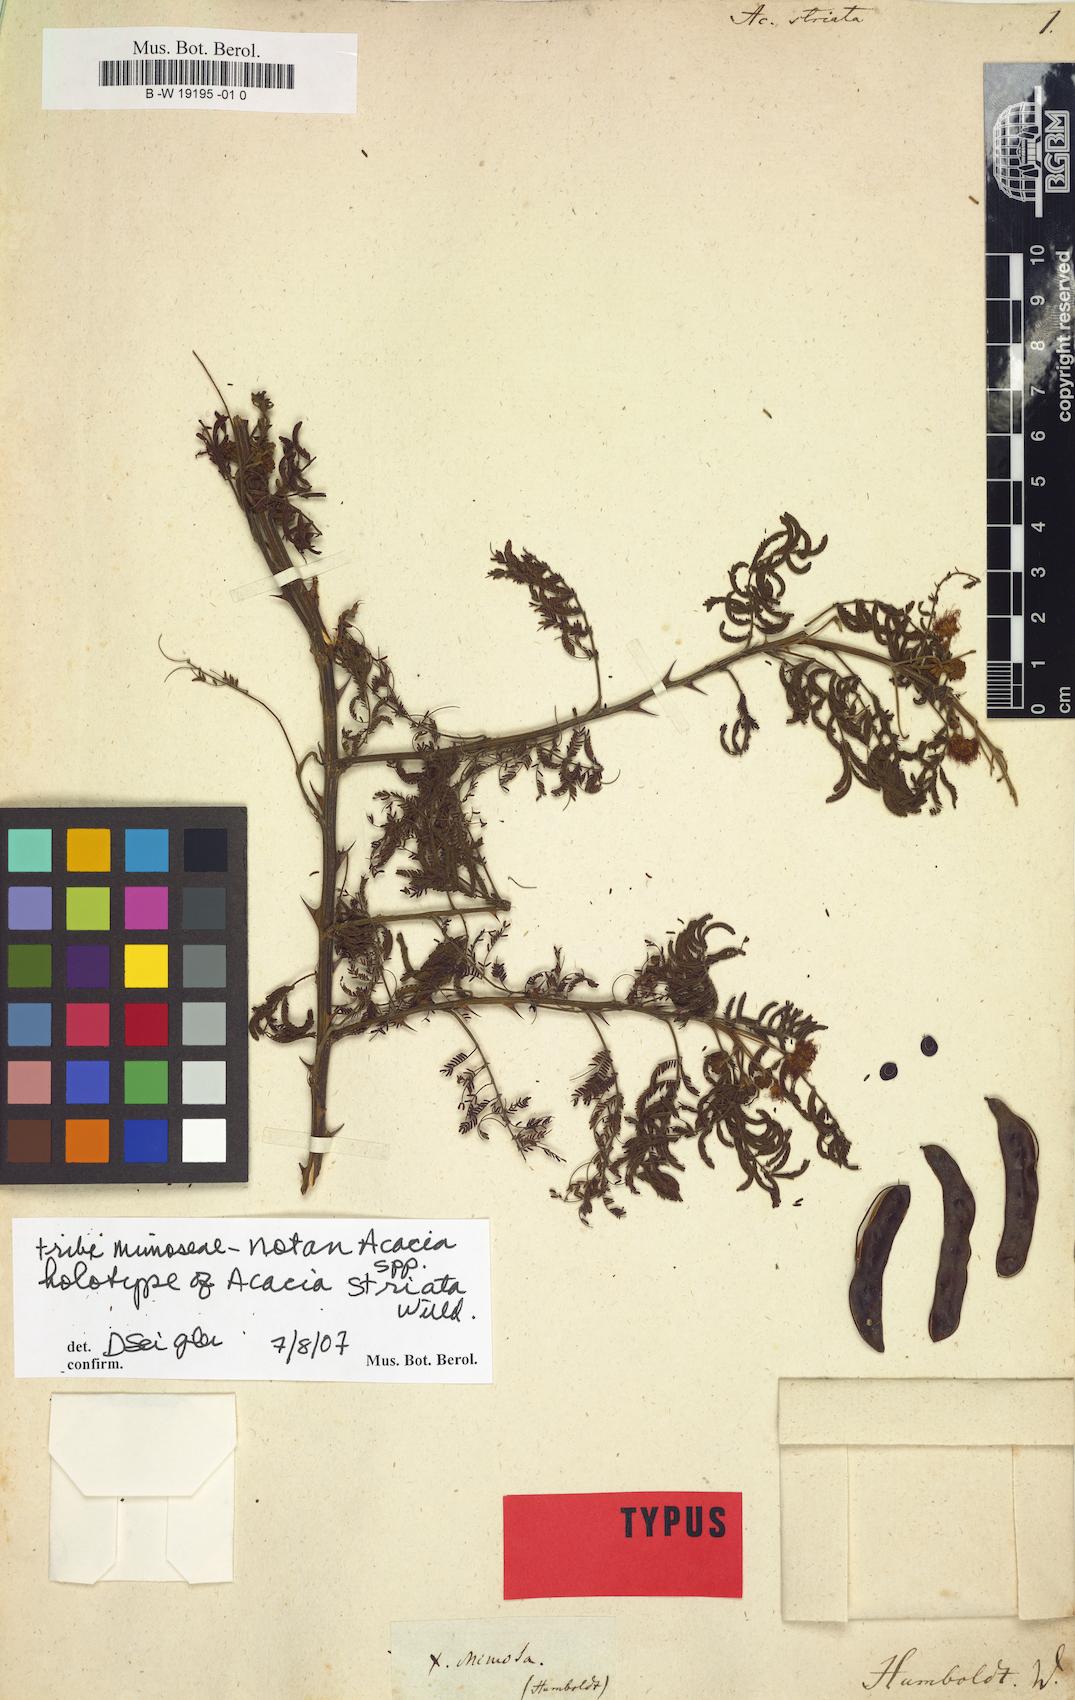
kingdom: Plantae
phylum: Tracheophyta
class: Magnoliopsida
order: Fabales
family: Fabaceae
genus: Acacia
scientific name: Acacia striata
